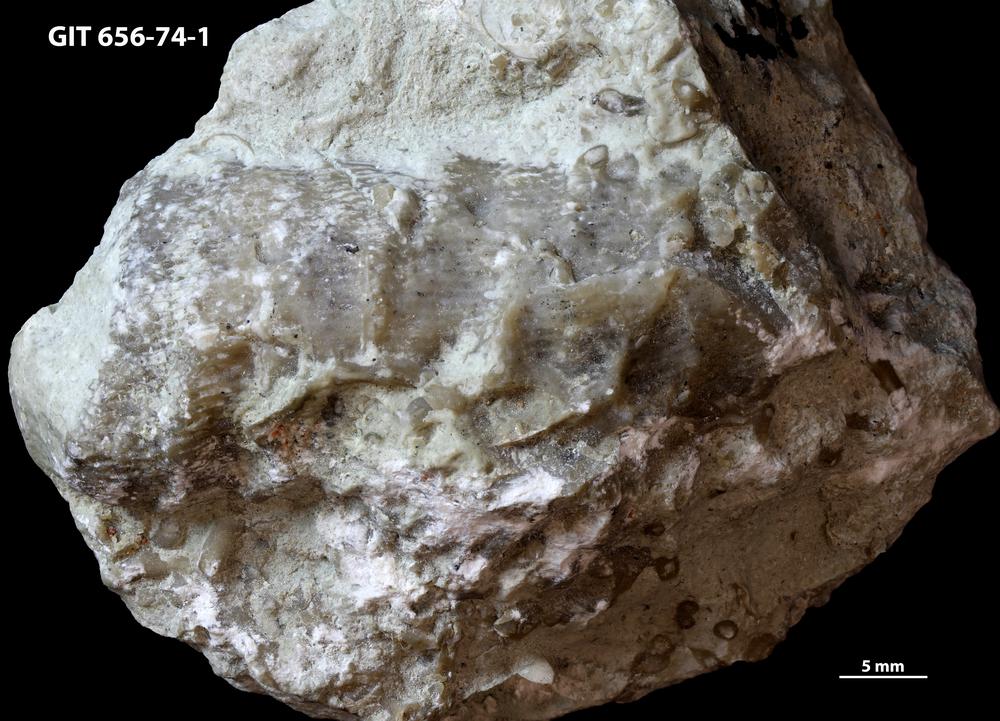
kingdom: Animalia
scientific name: Animalia
